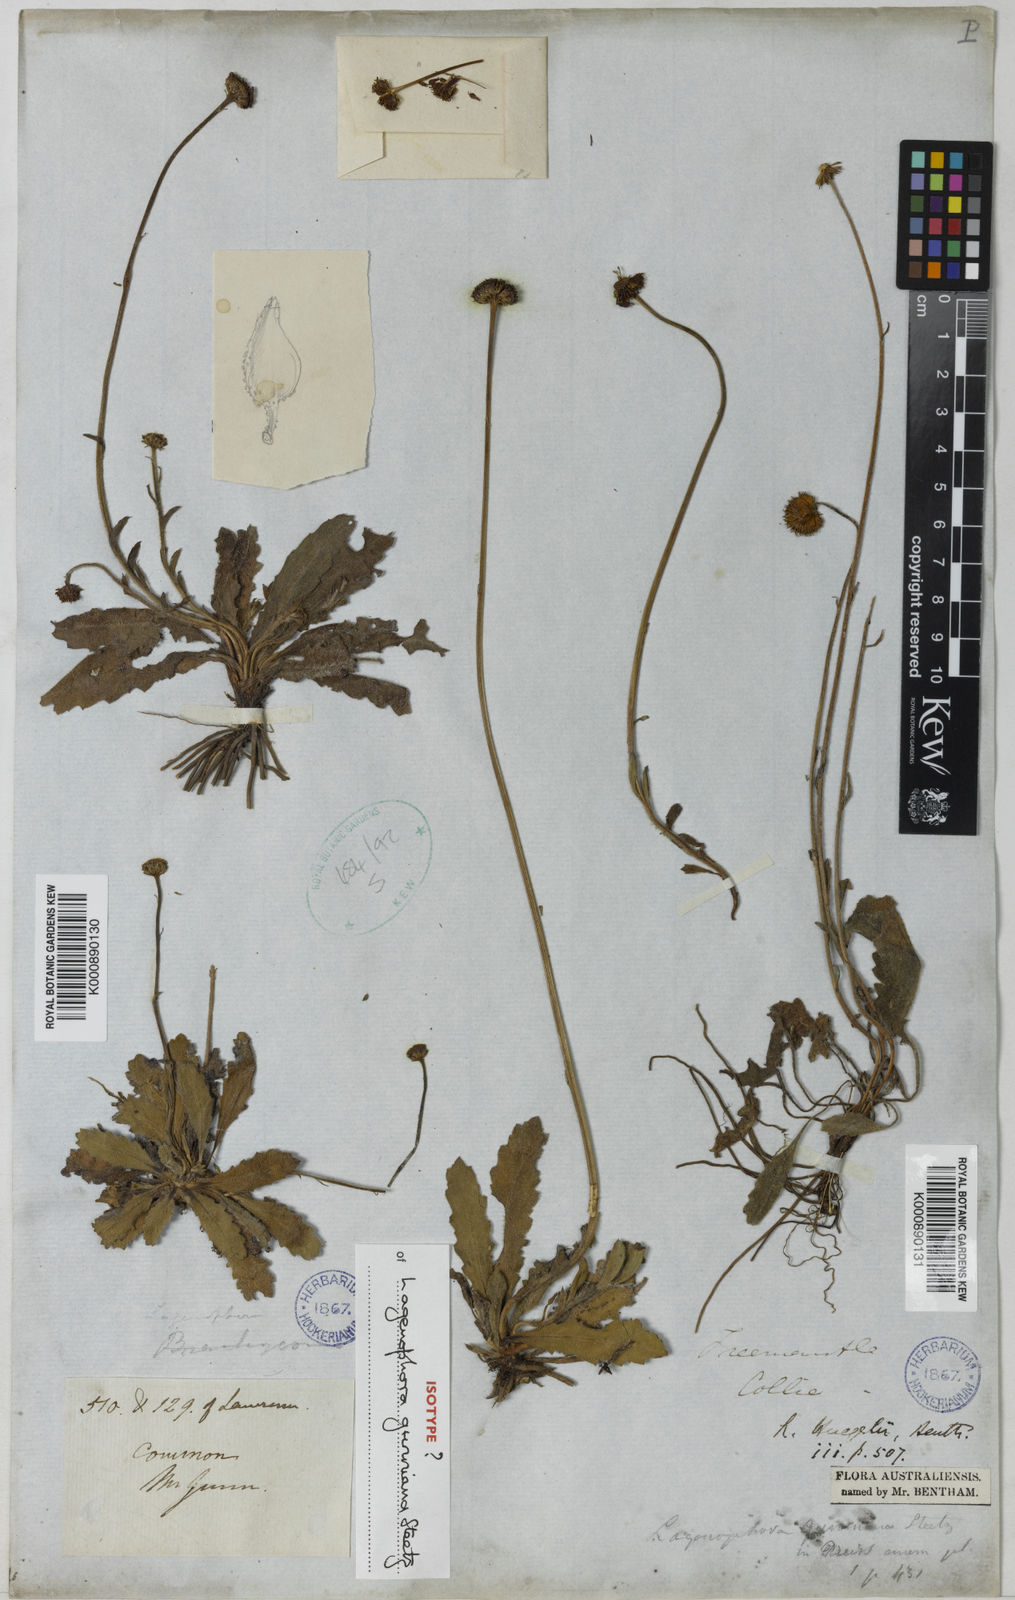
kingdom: Plantae
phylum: Tracheophyta
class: Magnoliopsida
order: Asterales
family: Asteraceae
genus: Lagenophora
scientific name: Lagenophora
